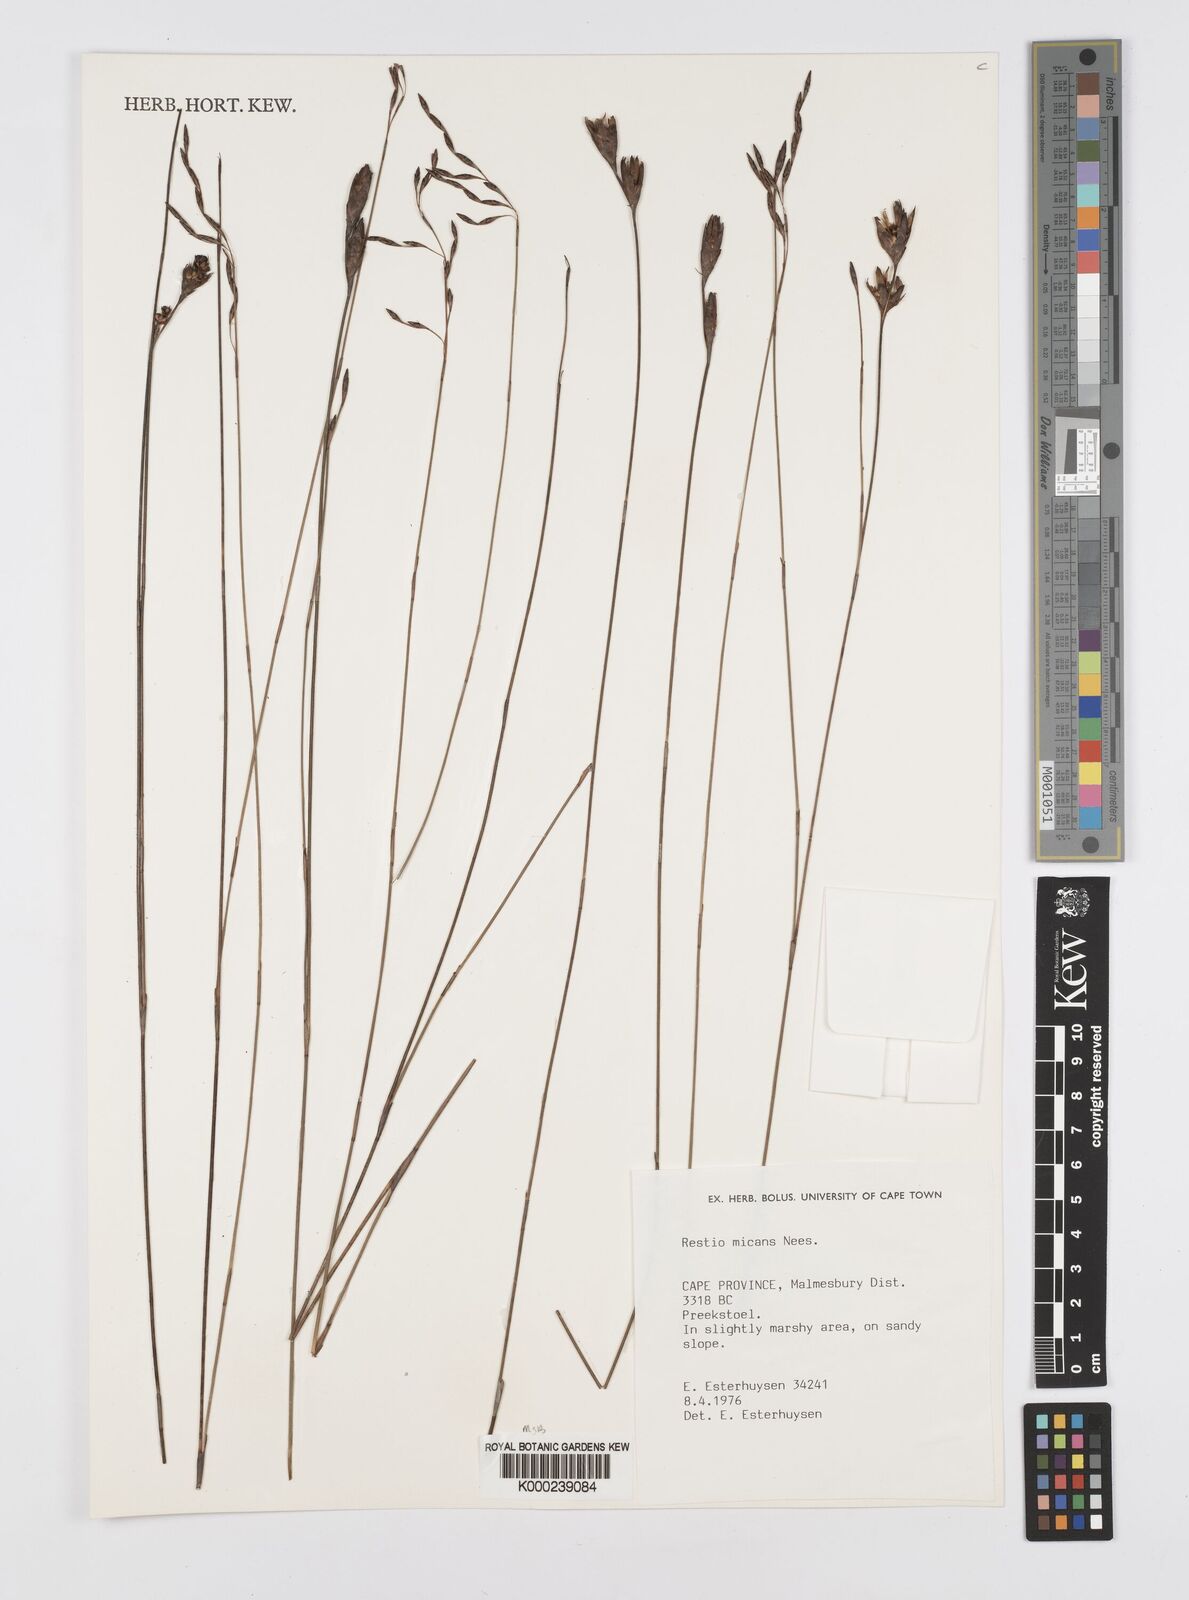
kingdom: Plantae
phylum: Tracheophyta
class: Liliopsida
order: Poales
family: Restionaceae
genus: Restio
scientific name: Restio micans
